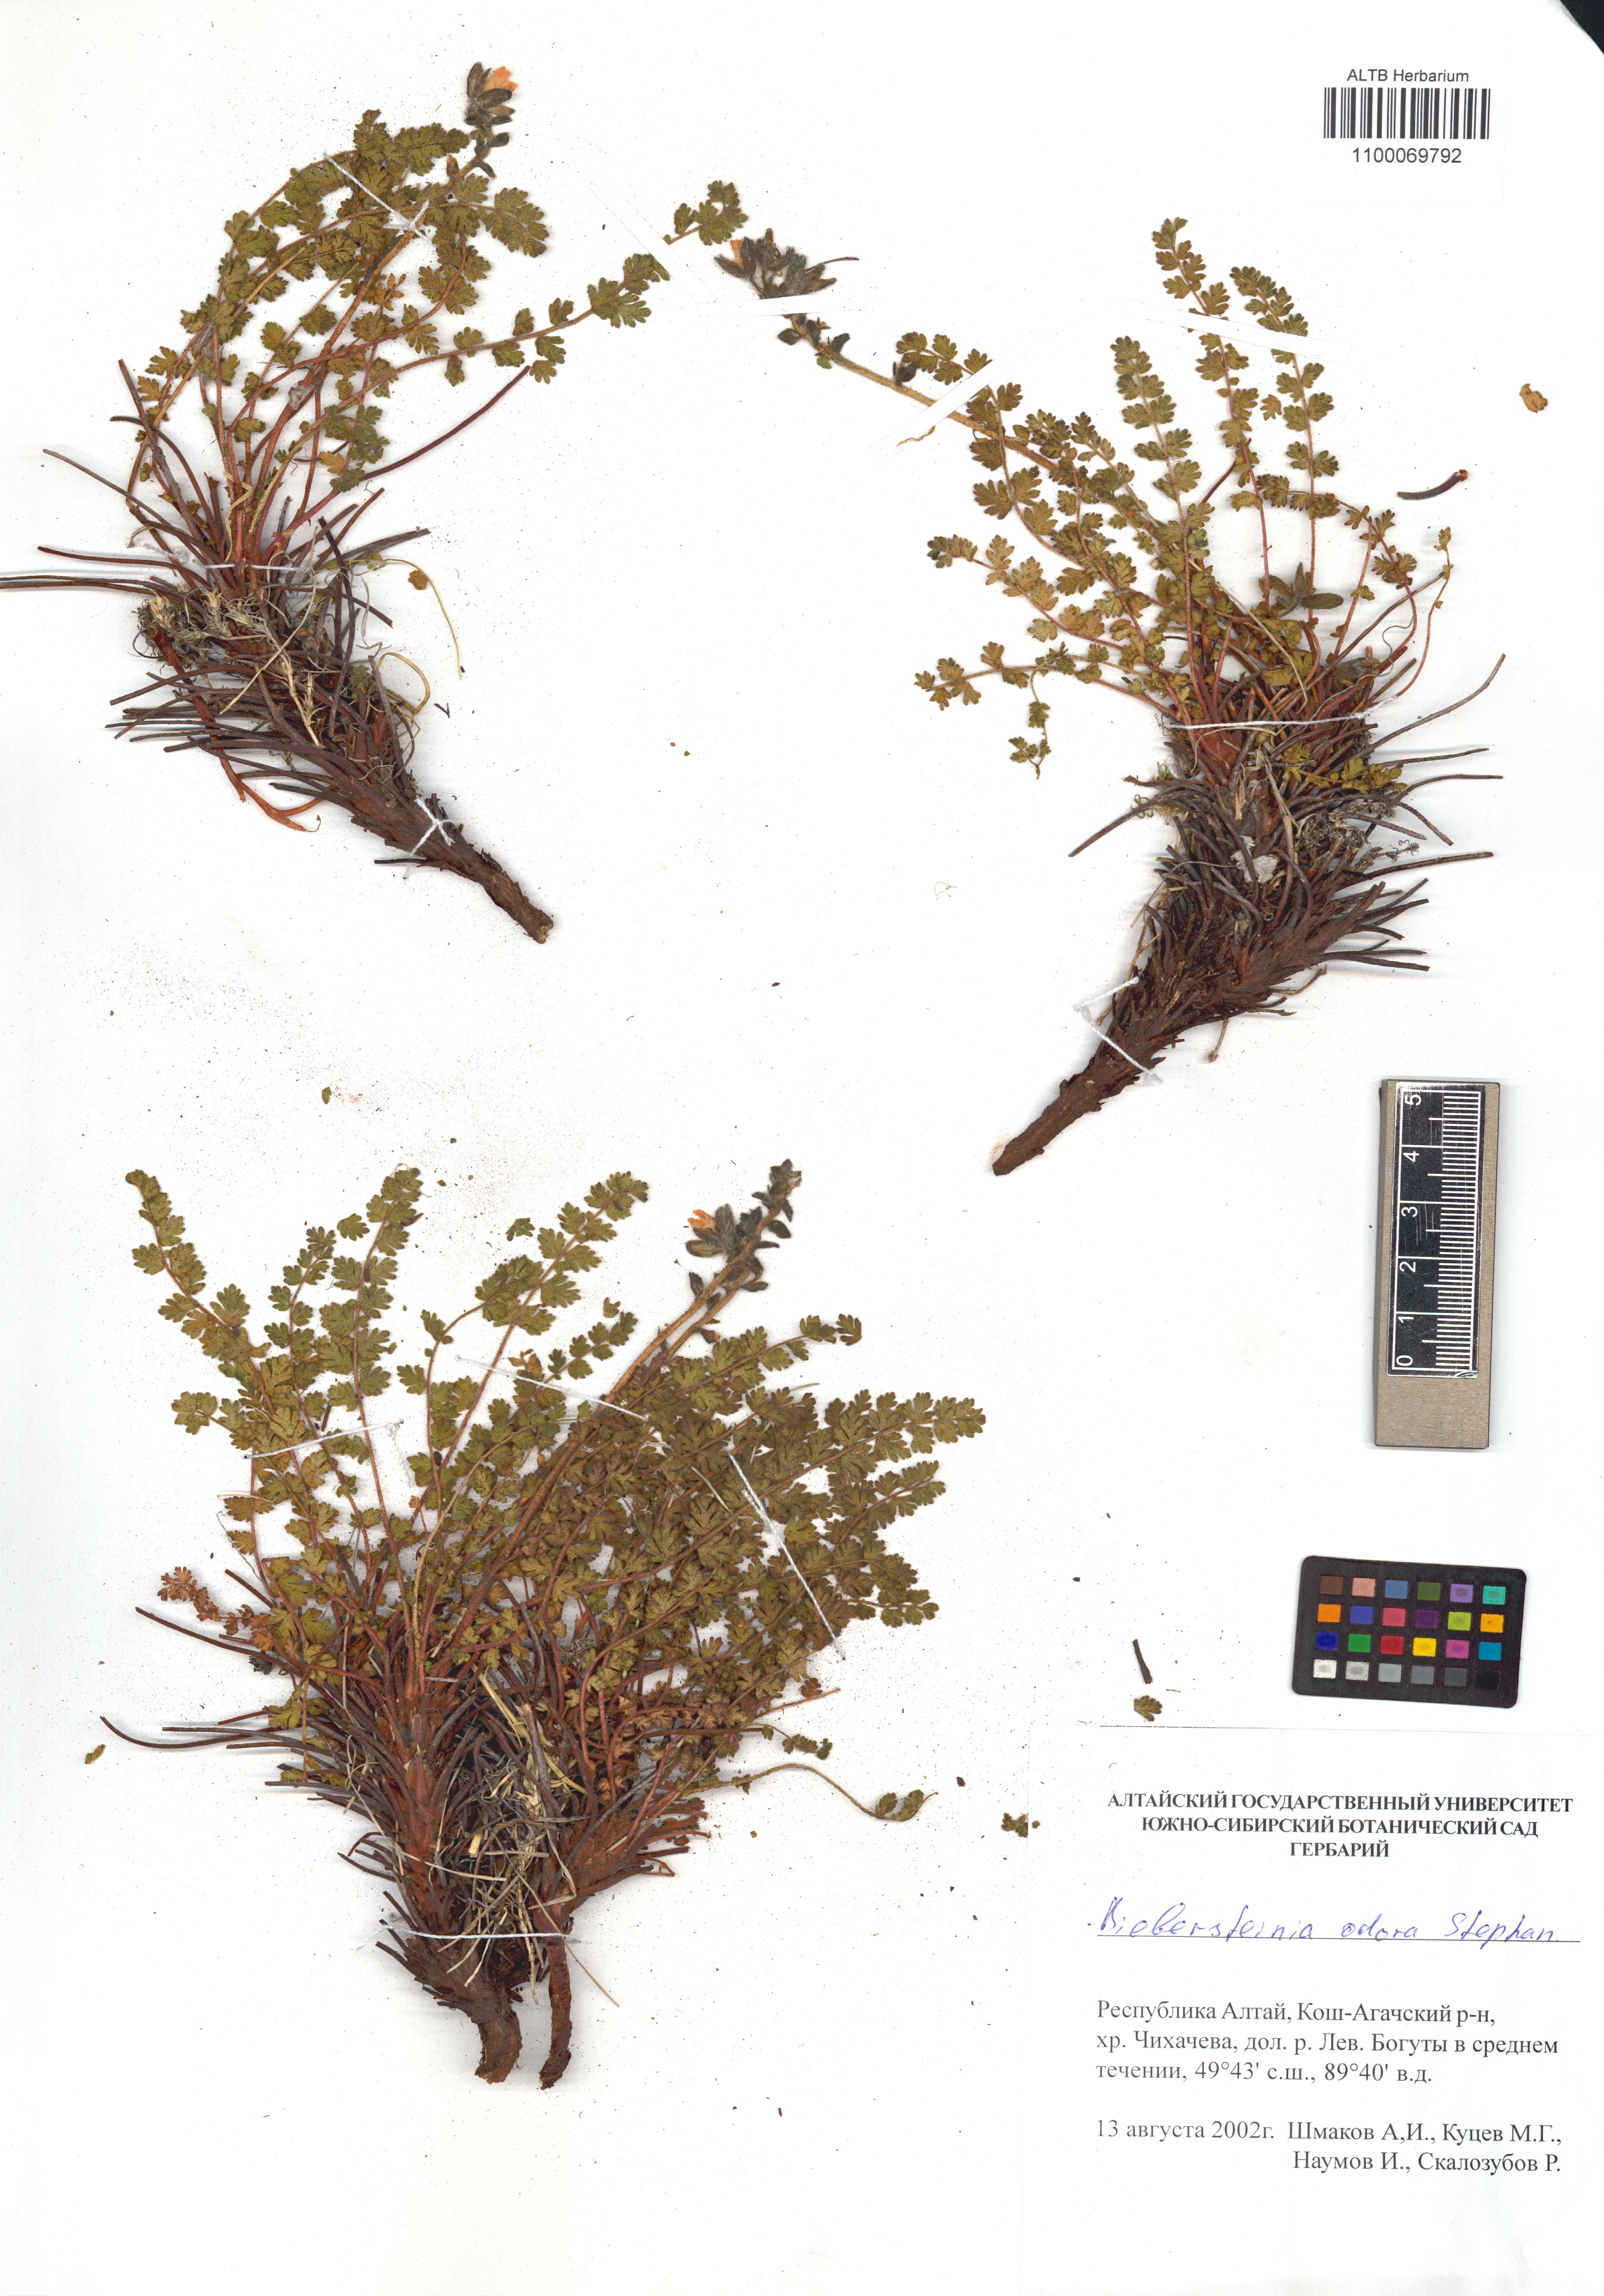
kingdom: Plantae
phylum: Tracheophyta
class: Magnoliopsida
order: Sapindales
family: Biebersteiniaceae
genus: Biebersteinia
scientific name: Biebersteinia odora
